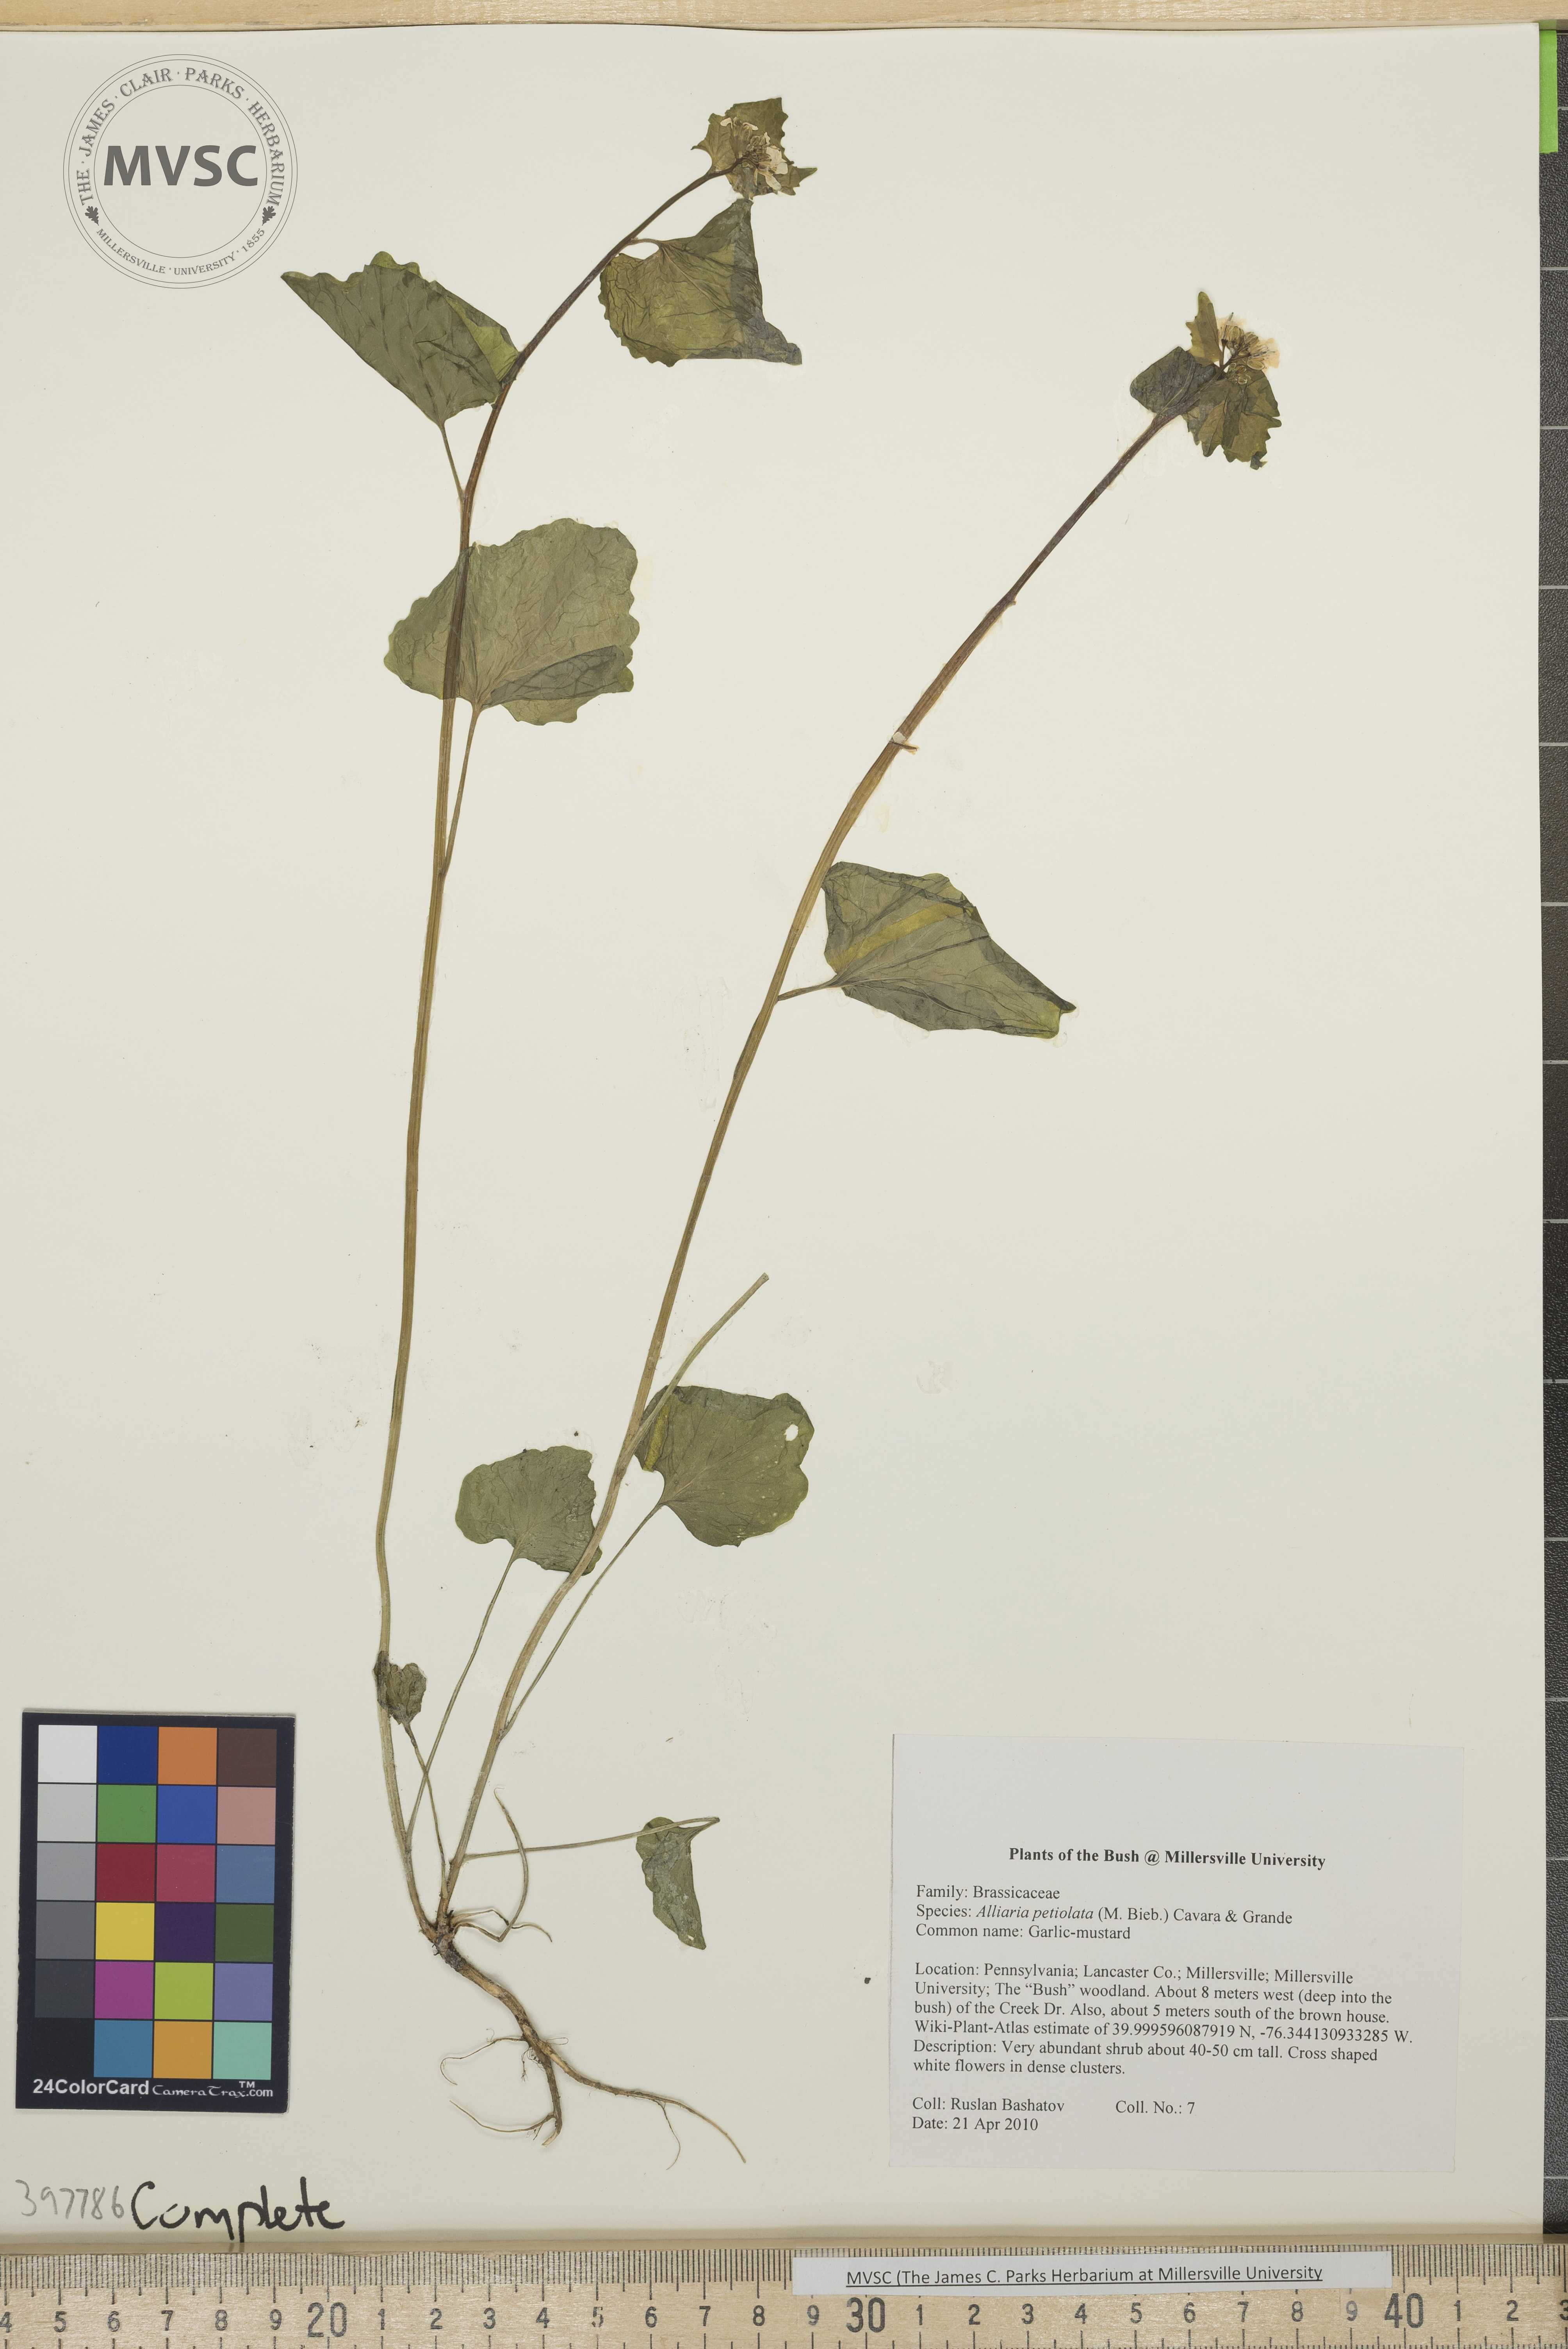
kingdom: Plantae
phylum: Tracheophyta
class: Magnoliopsida
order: Brassicales
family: Brassicaceae
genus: Alliaria
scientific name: Alliaria petiolata
